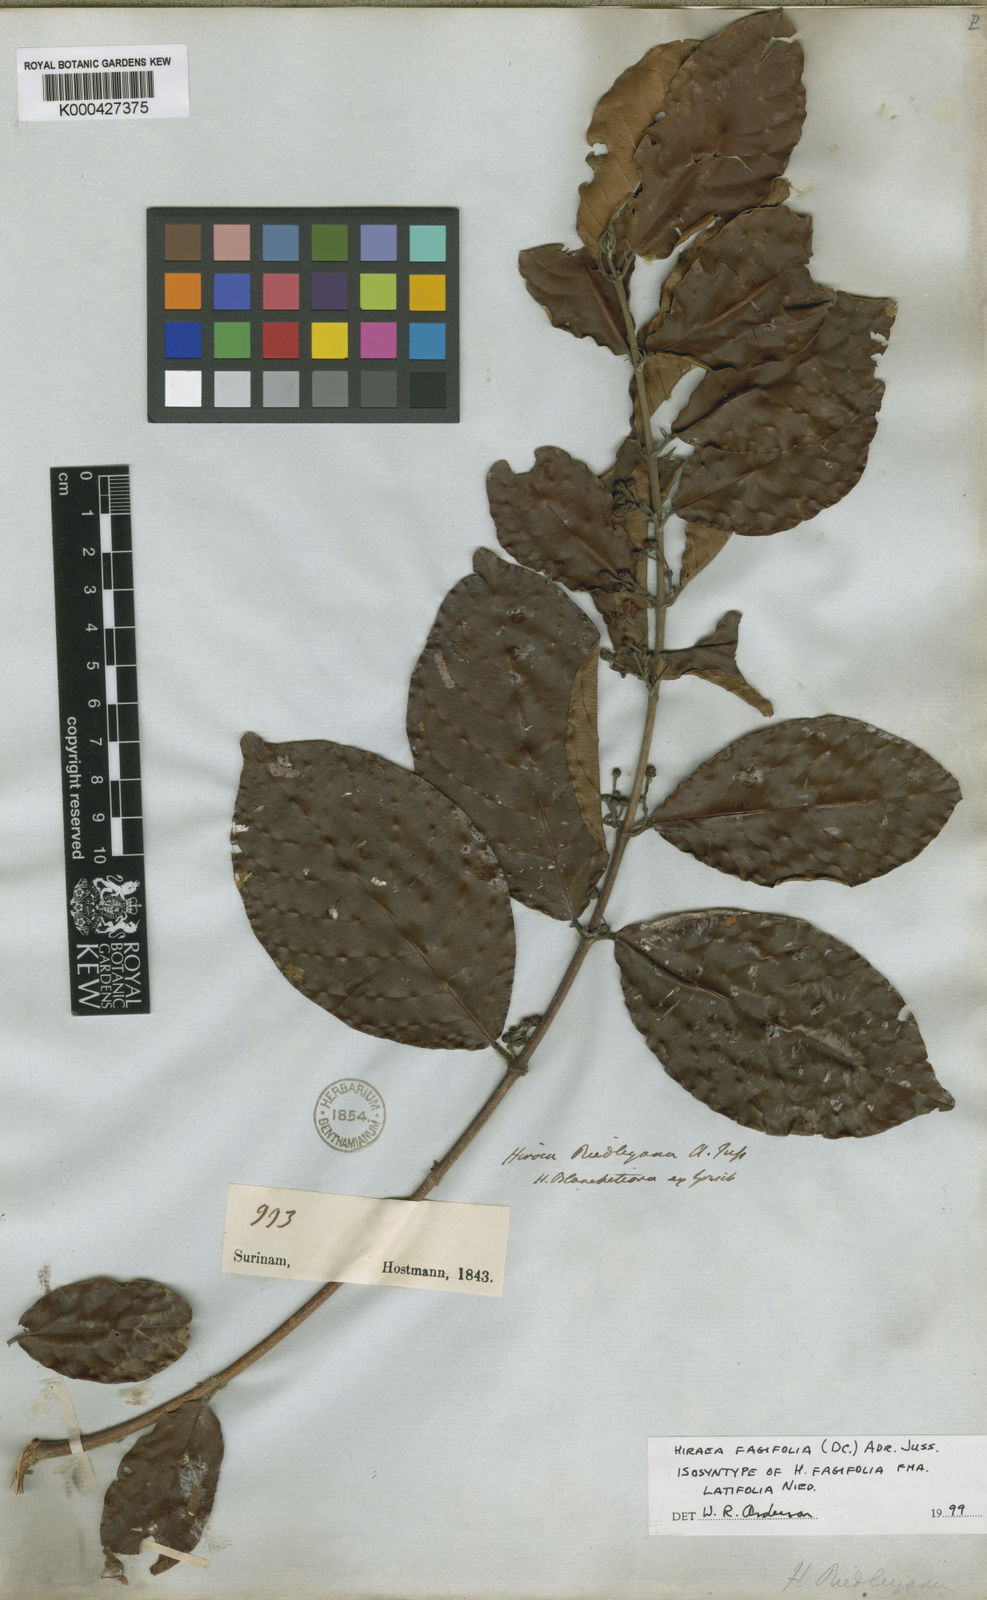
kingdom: Plantae
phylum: Tracheophyta
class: Magnoliopsida
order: Malpighiales
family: Malpighiaceae
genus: Hiraea
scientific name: Hiraea fagifolia
